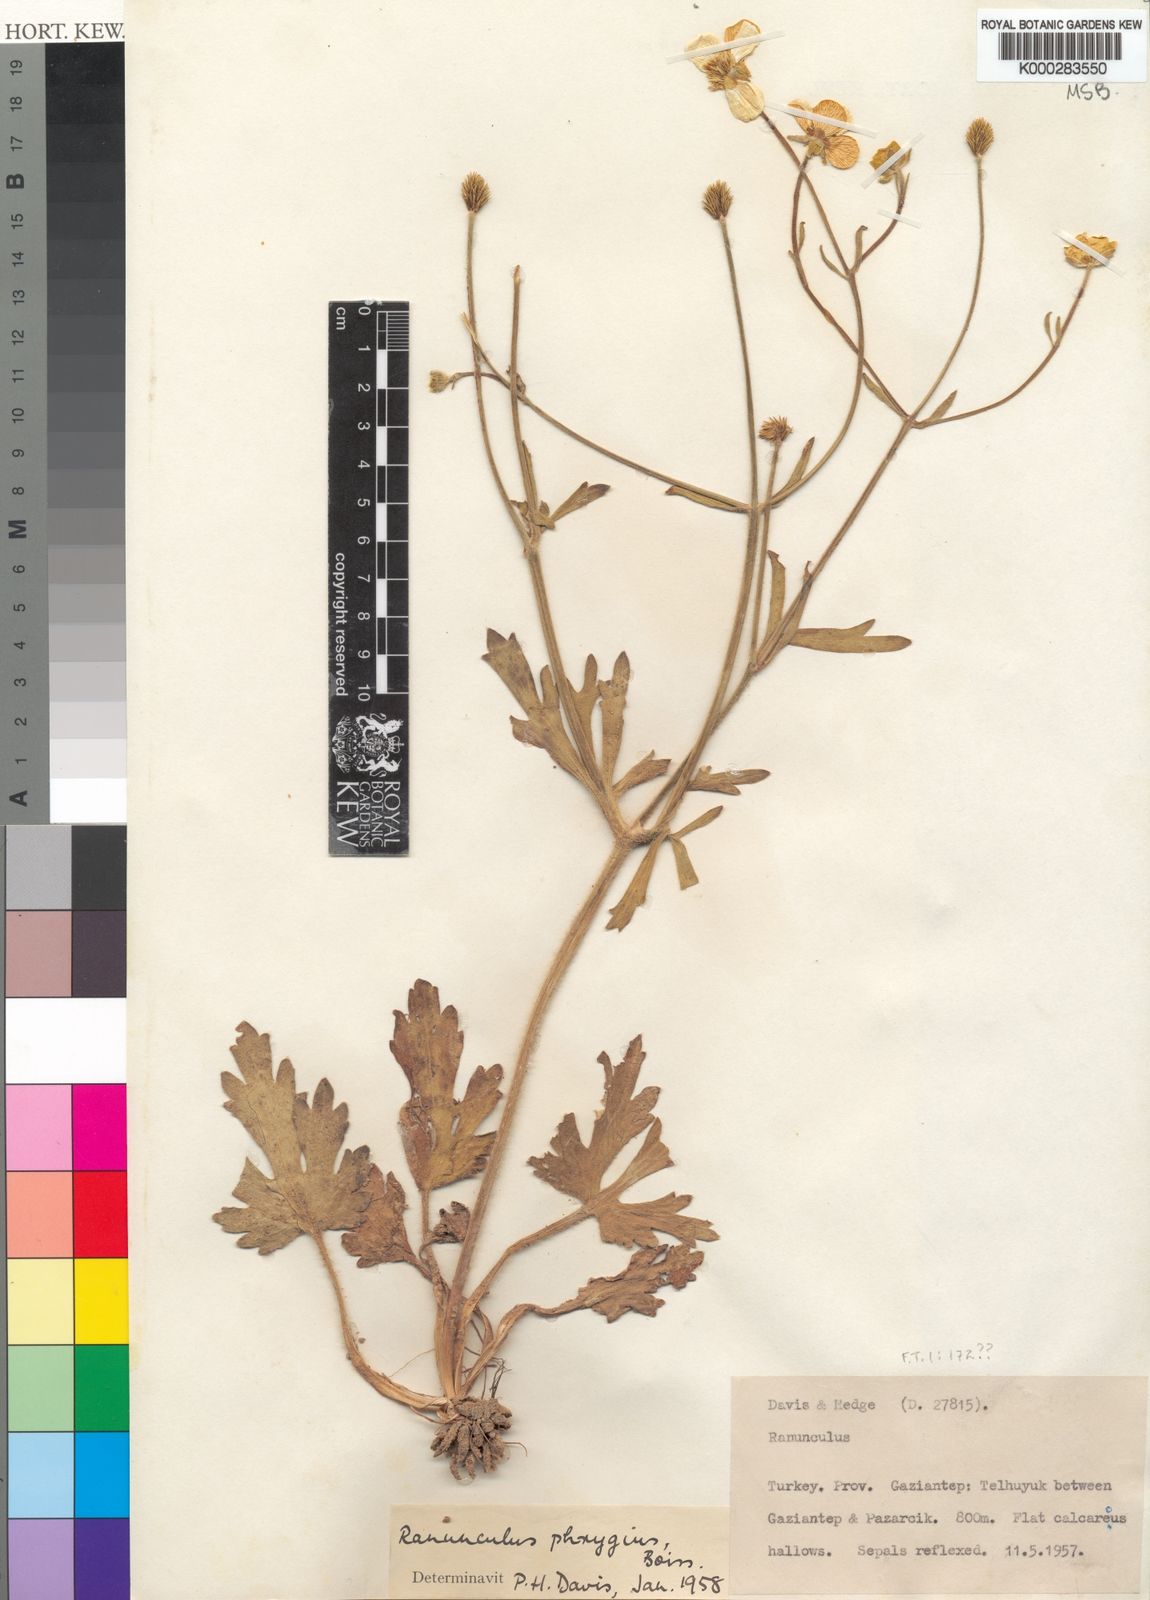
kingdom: Plantae
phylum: Tracheophyta
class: Magnoliopsida
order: Ranunculales
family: Ranunculaceae
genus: Ranunculus
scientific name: Ranunculus damascenus
